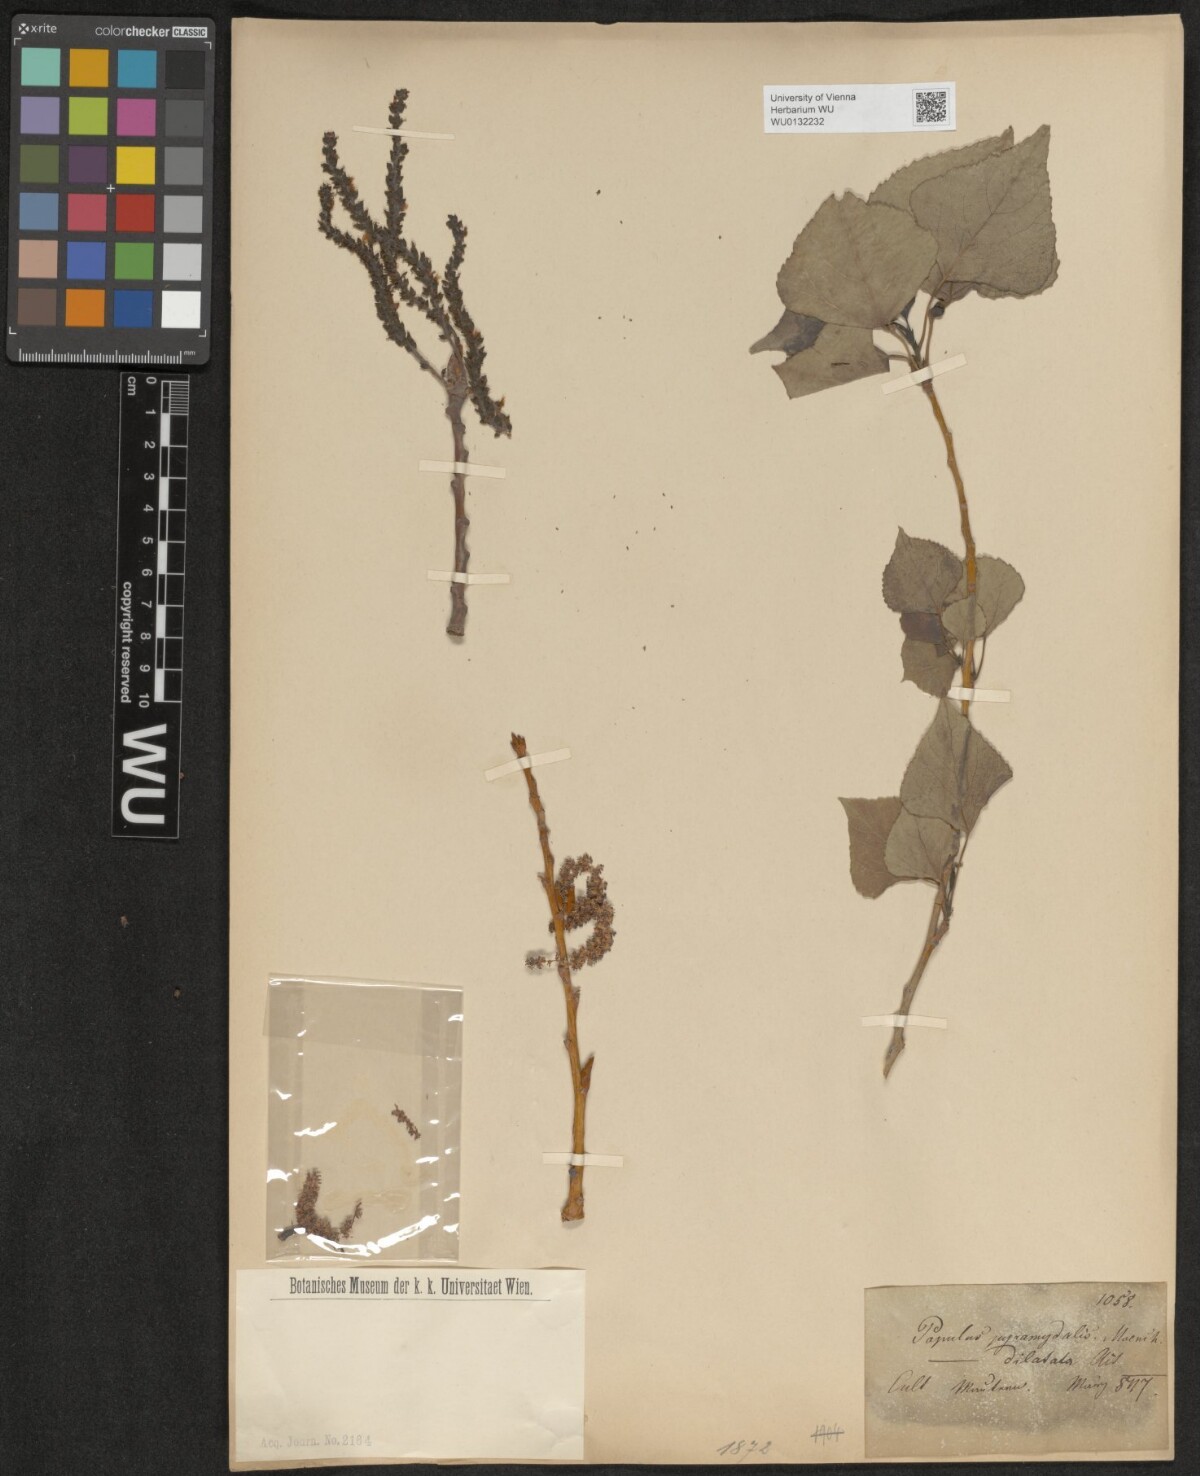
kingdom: Plantae
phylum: Tracheophyta
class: Magnoliopsida
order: Malpighiales
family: Salicaceae
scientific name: Salicaceae
